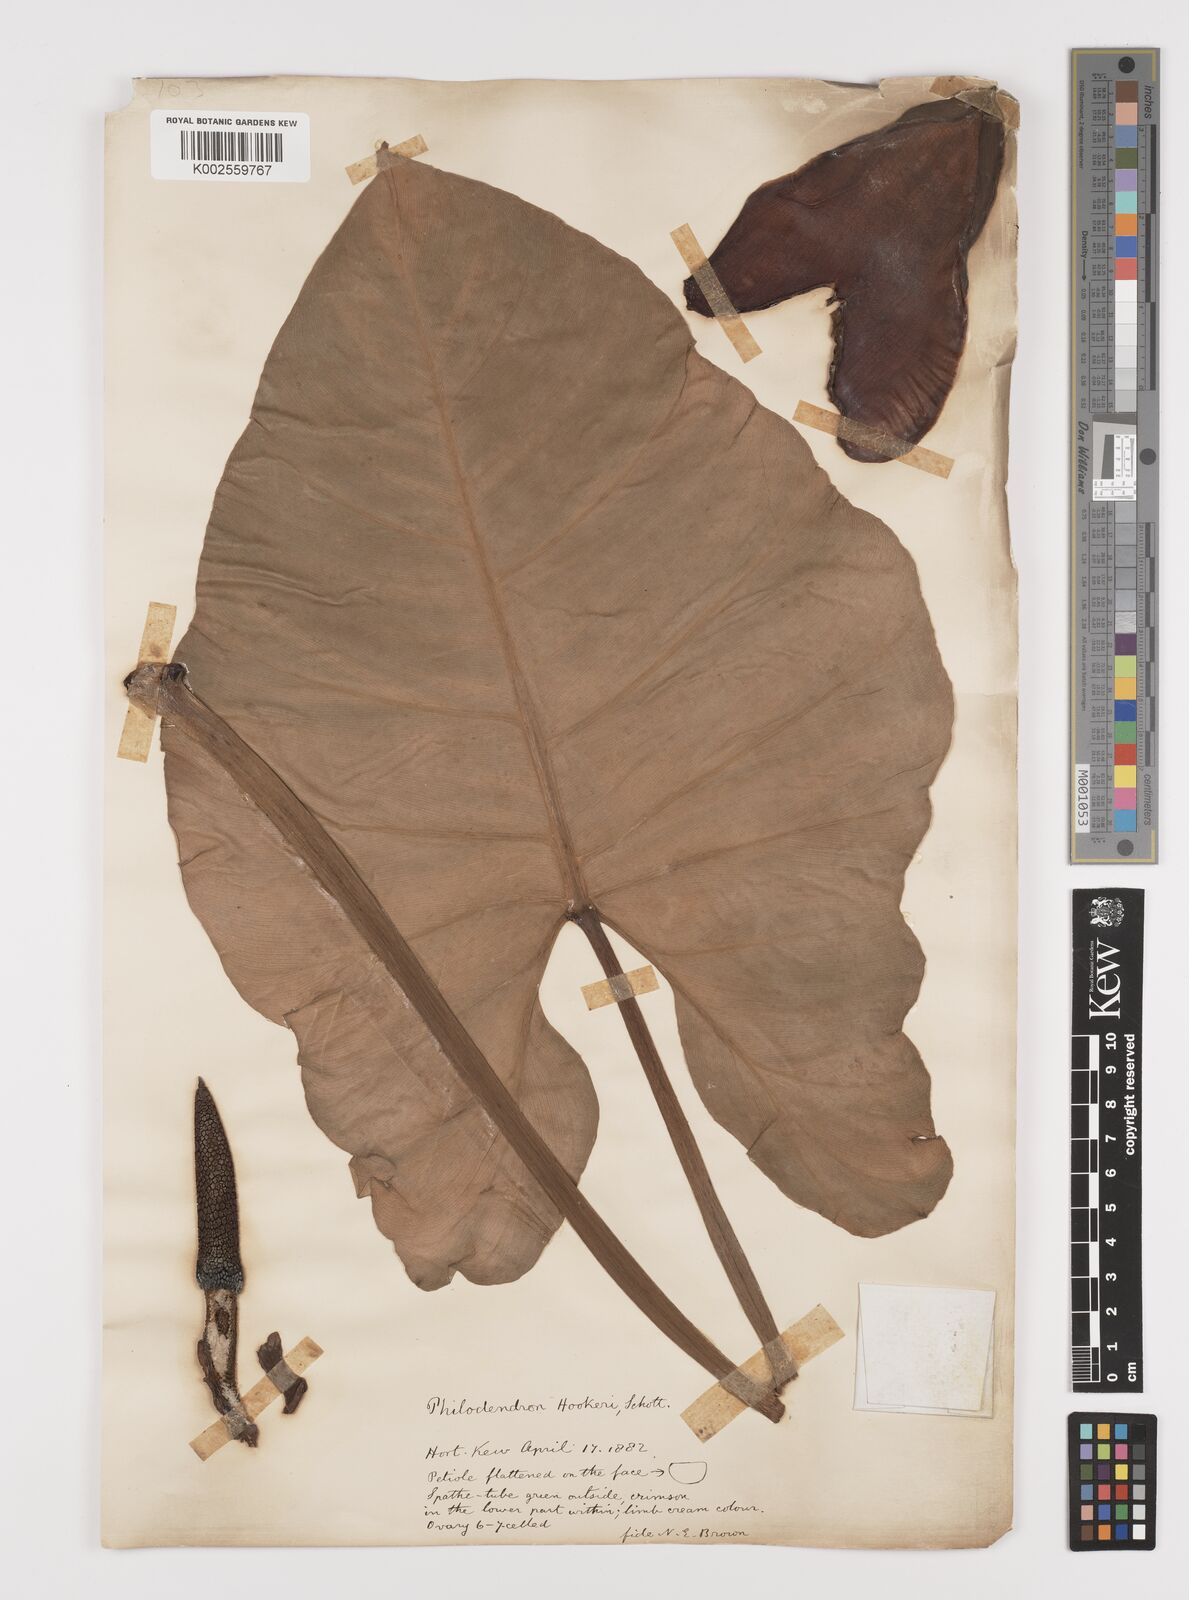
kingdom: Plantae
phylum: Tracheophyta
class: Liliopsida
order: Alismatales
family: Araceae
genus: Philodendron
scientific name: Philodendron latifolium
